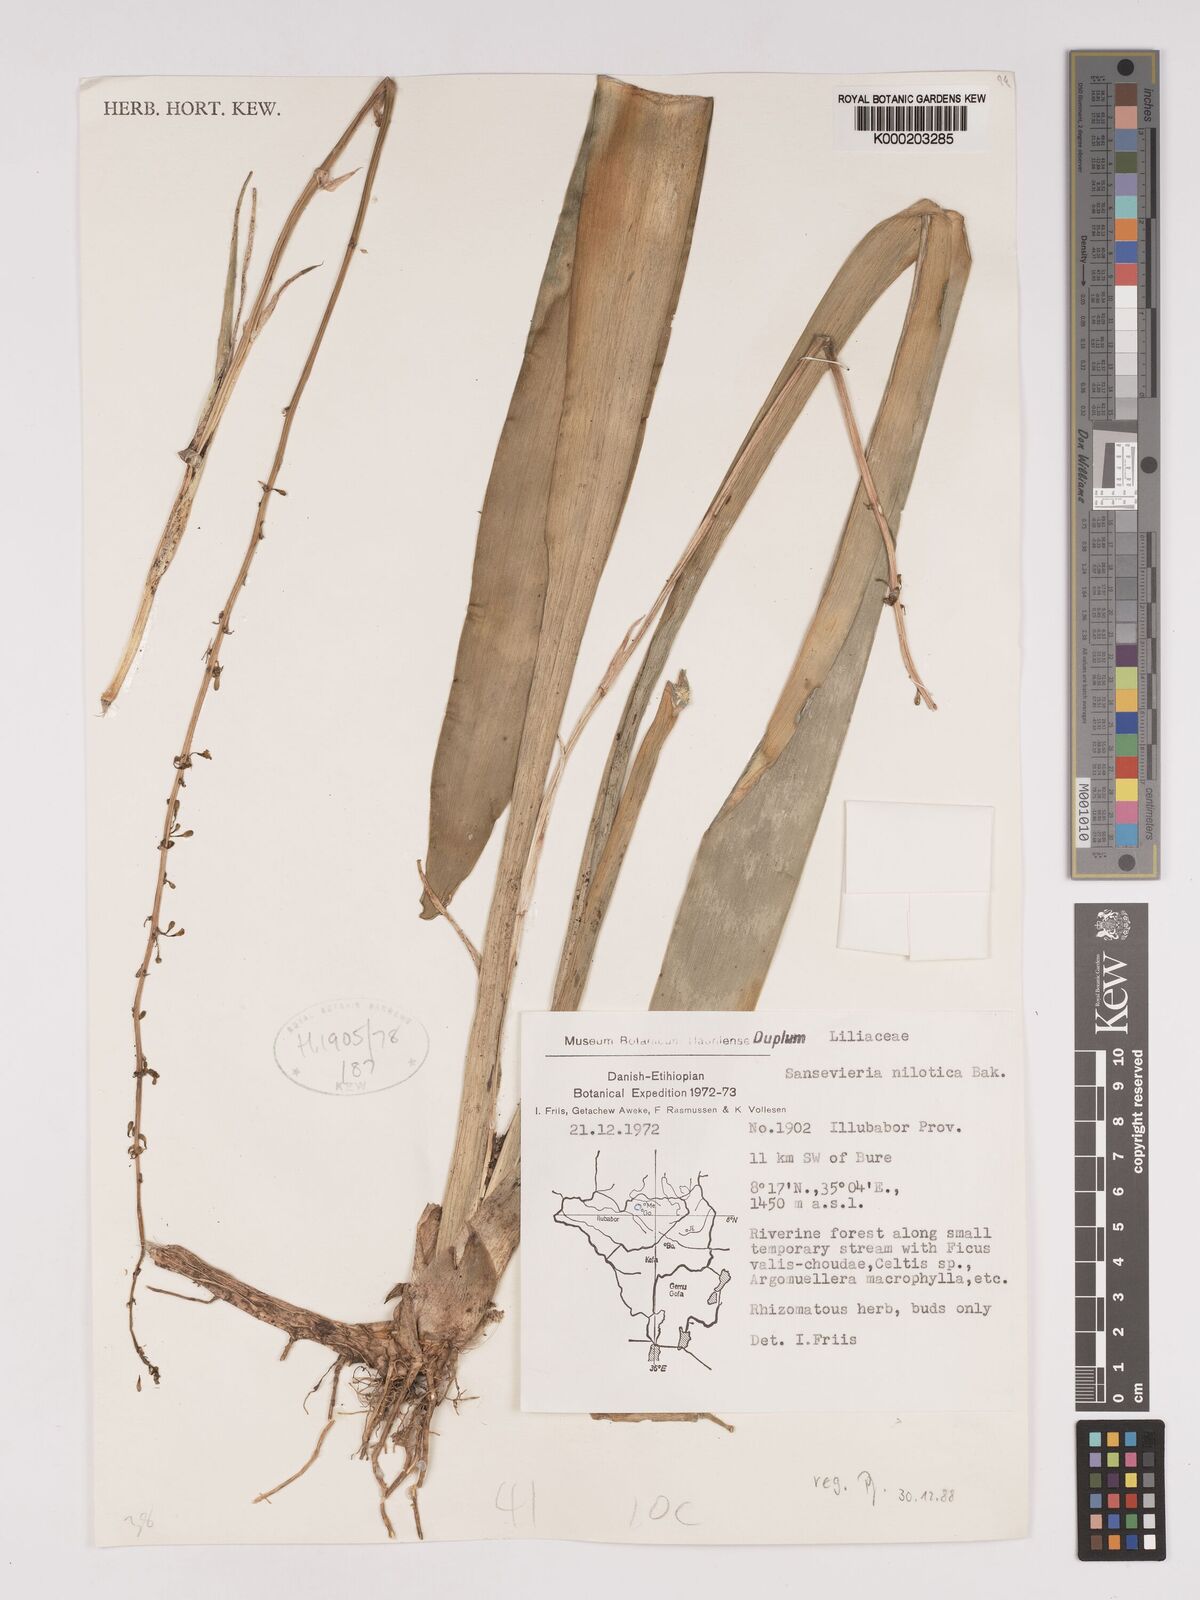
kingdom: Plantae
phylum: Tracheophyta
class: Liliopsida
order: Asparagales
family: Asparagaceae
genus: Dracaena
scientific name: Dracaena nilotica
